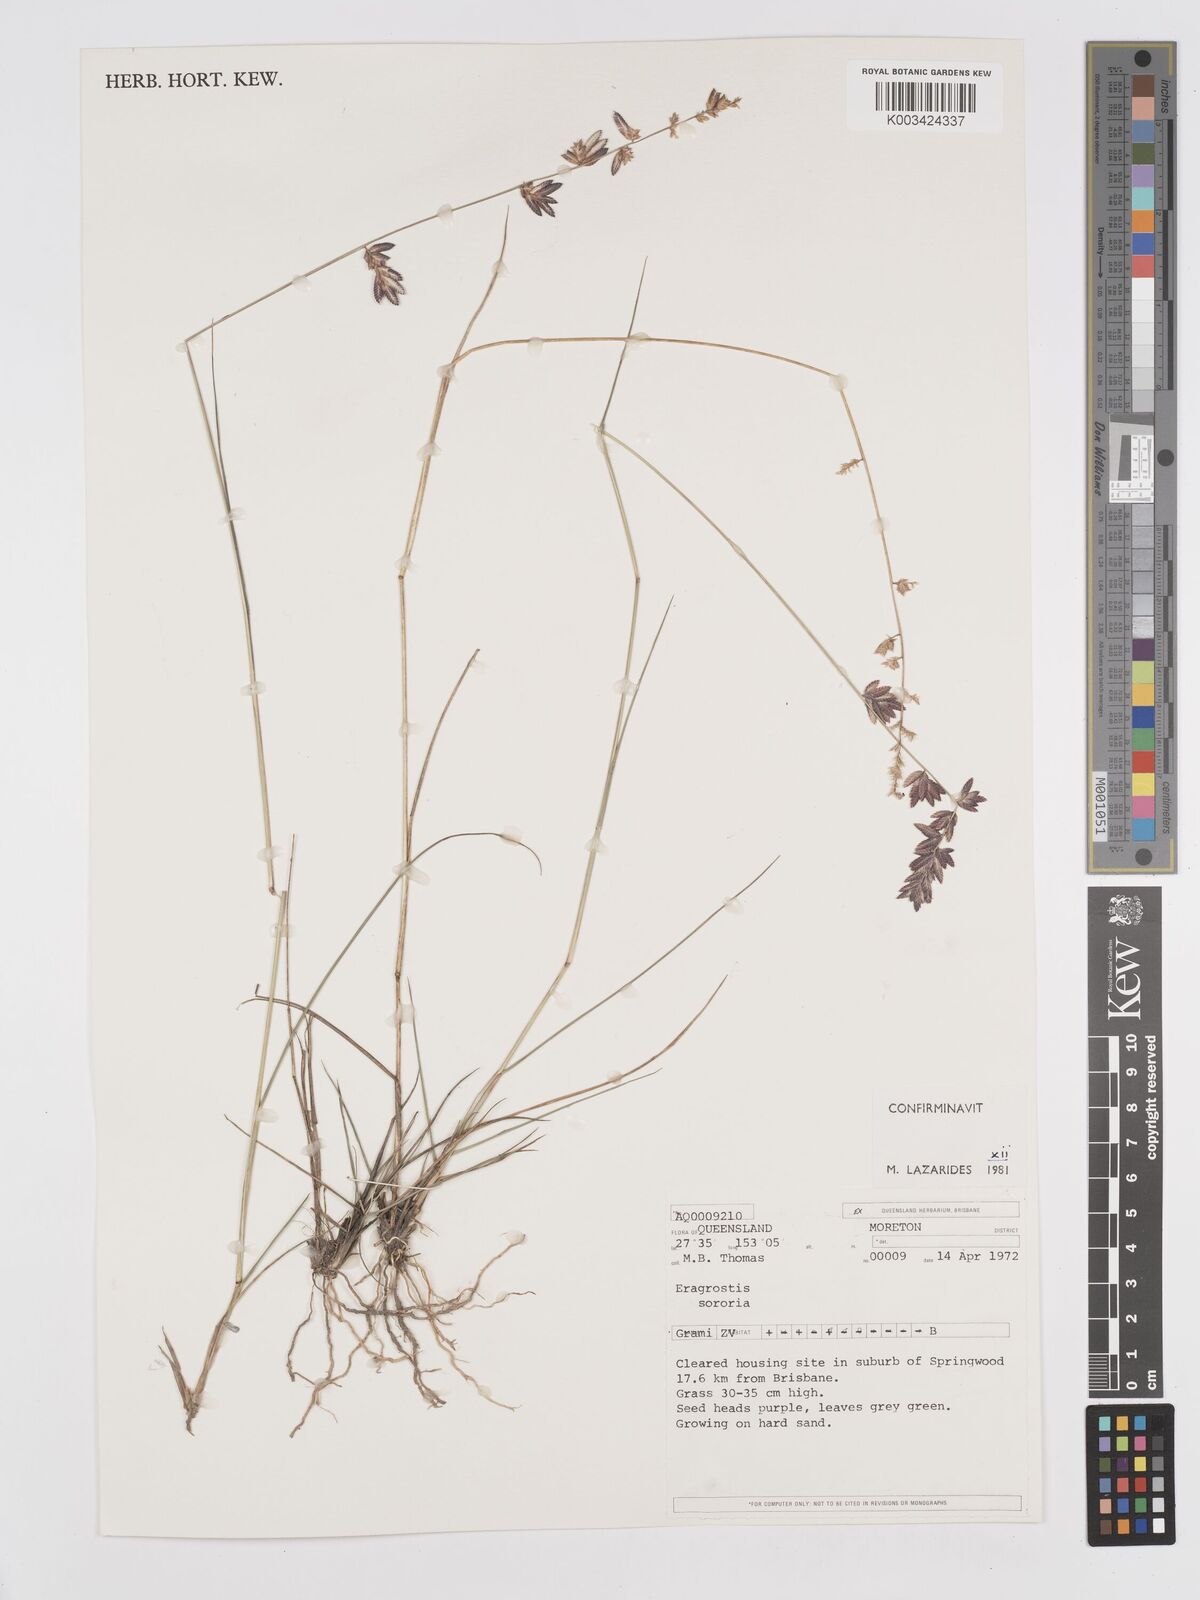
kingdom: Plantae
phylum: Tracheophyta
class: Liliopsida
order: Poales
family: Poaceae
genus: Eragrostis
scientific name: Eragrostis sororia
